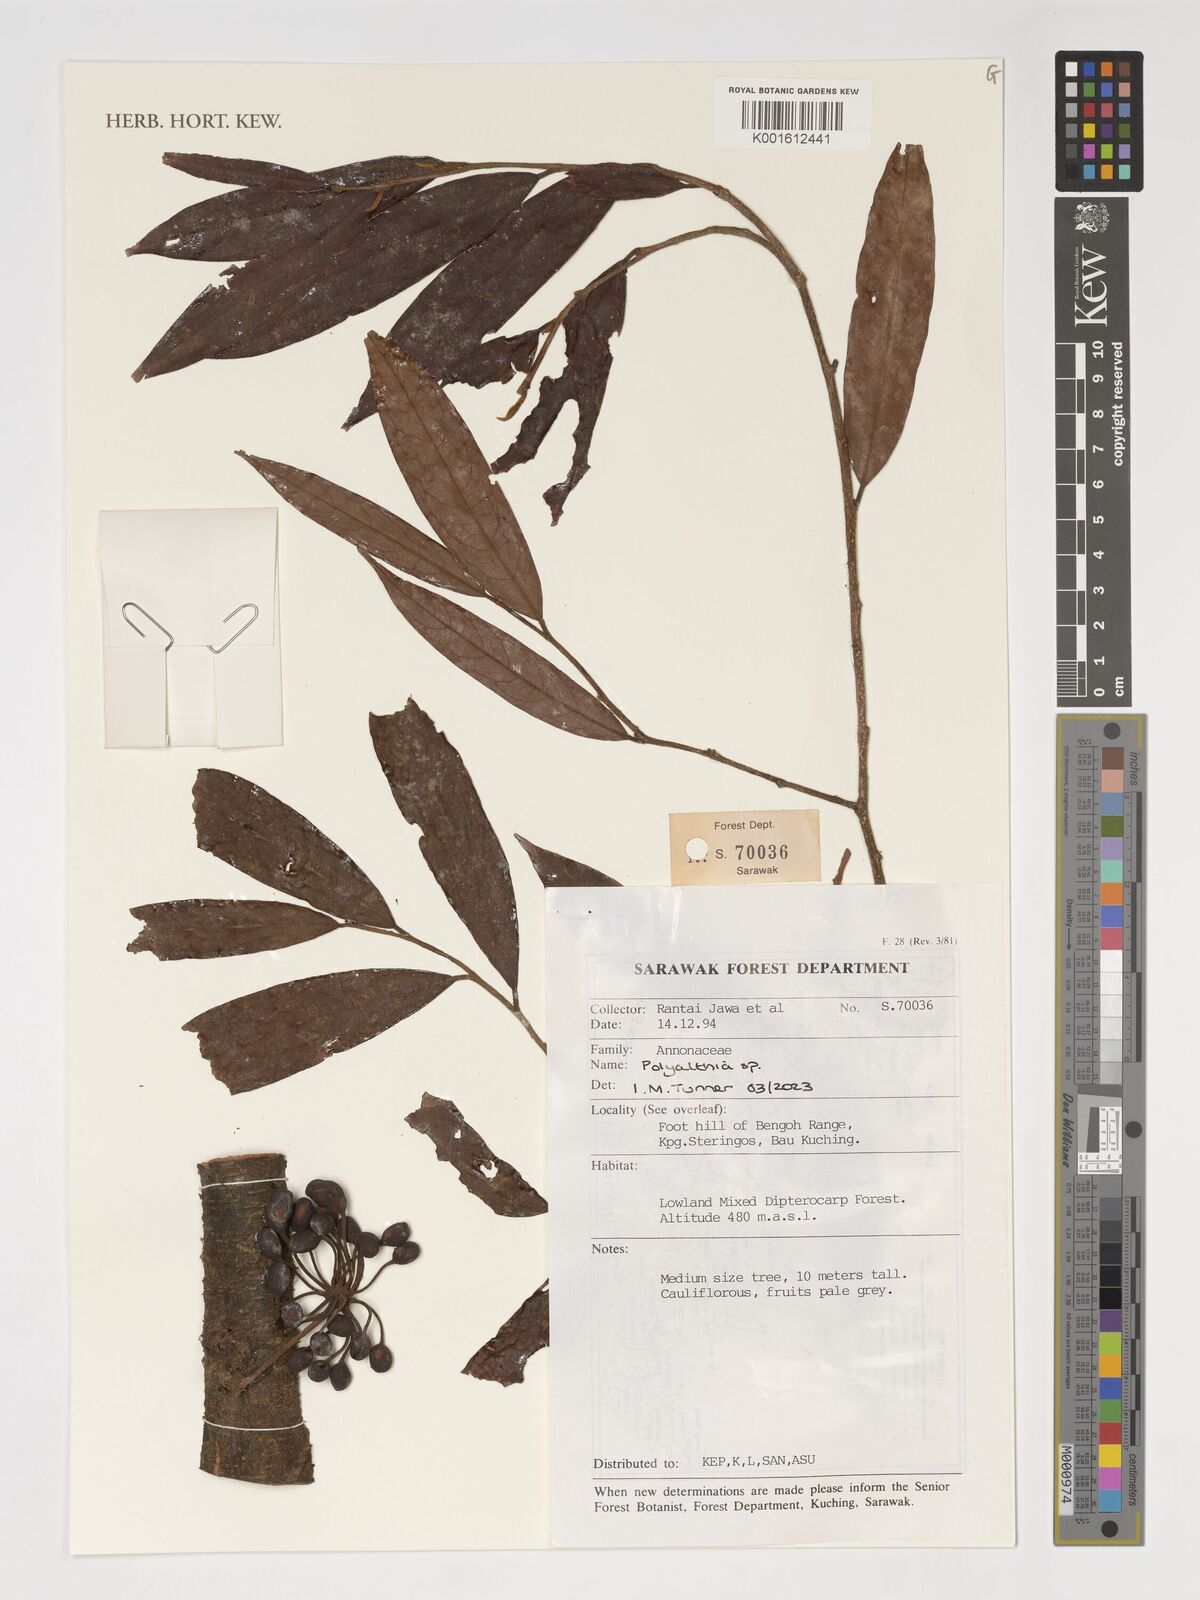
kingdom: Plantae
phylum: Tracheophyta
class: Magnoliopsida
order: Magnoliales
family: Annonaceae
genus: Polyalthia
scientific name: Polyalthia
